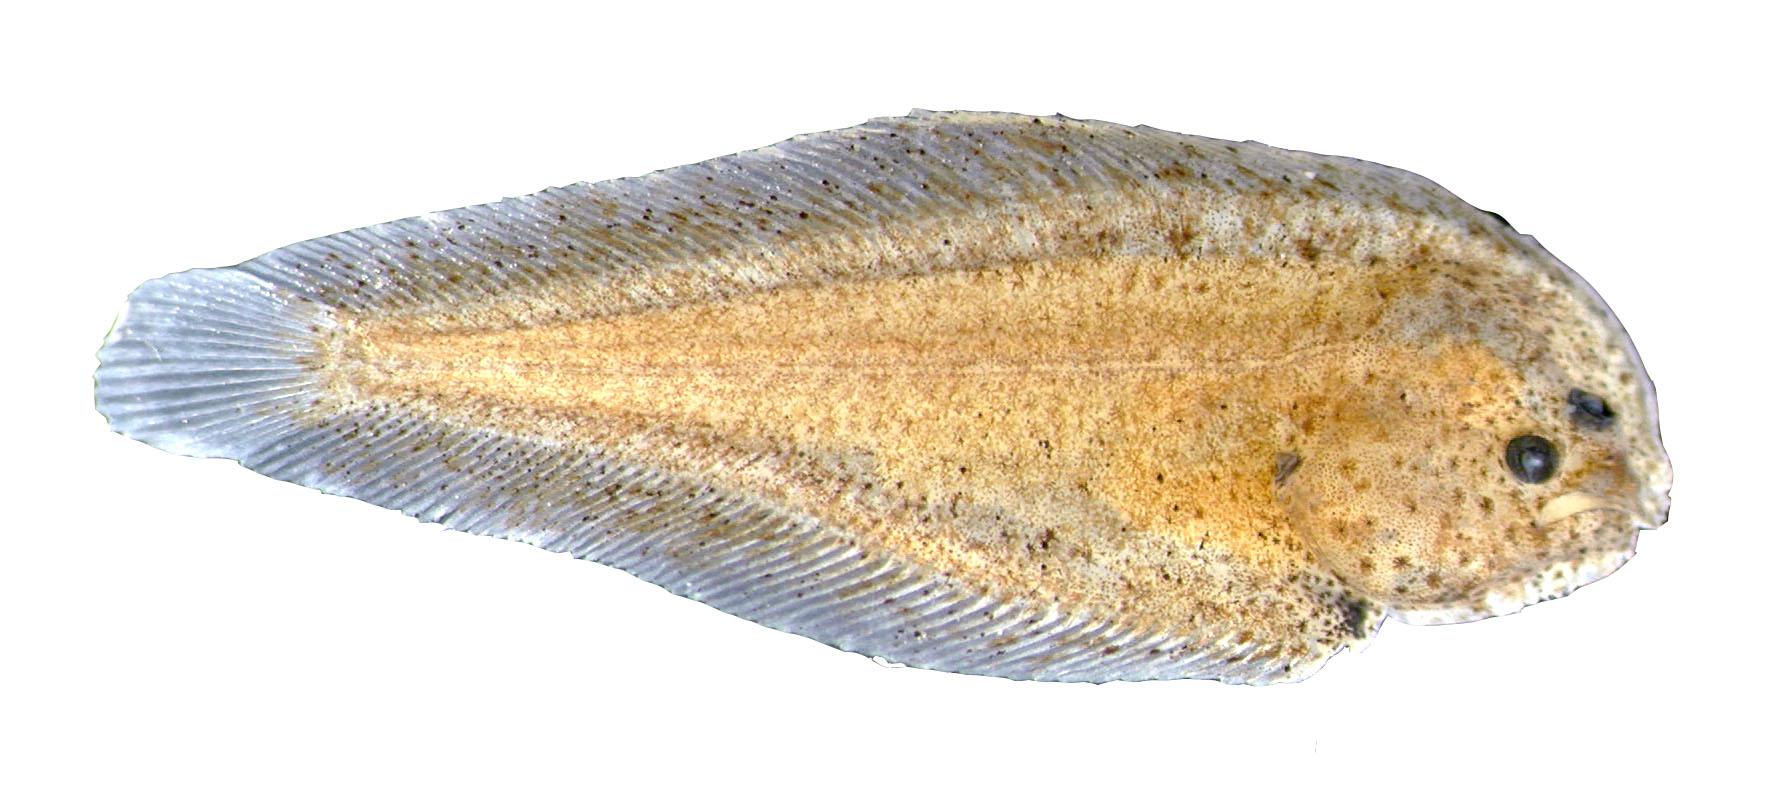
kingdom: Animalia
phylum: Chordata
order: Pleuronectiformes
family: Soleidae
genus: Synaptura
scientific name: Synaptura marginata
